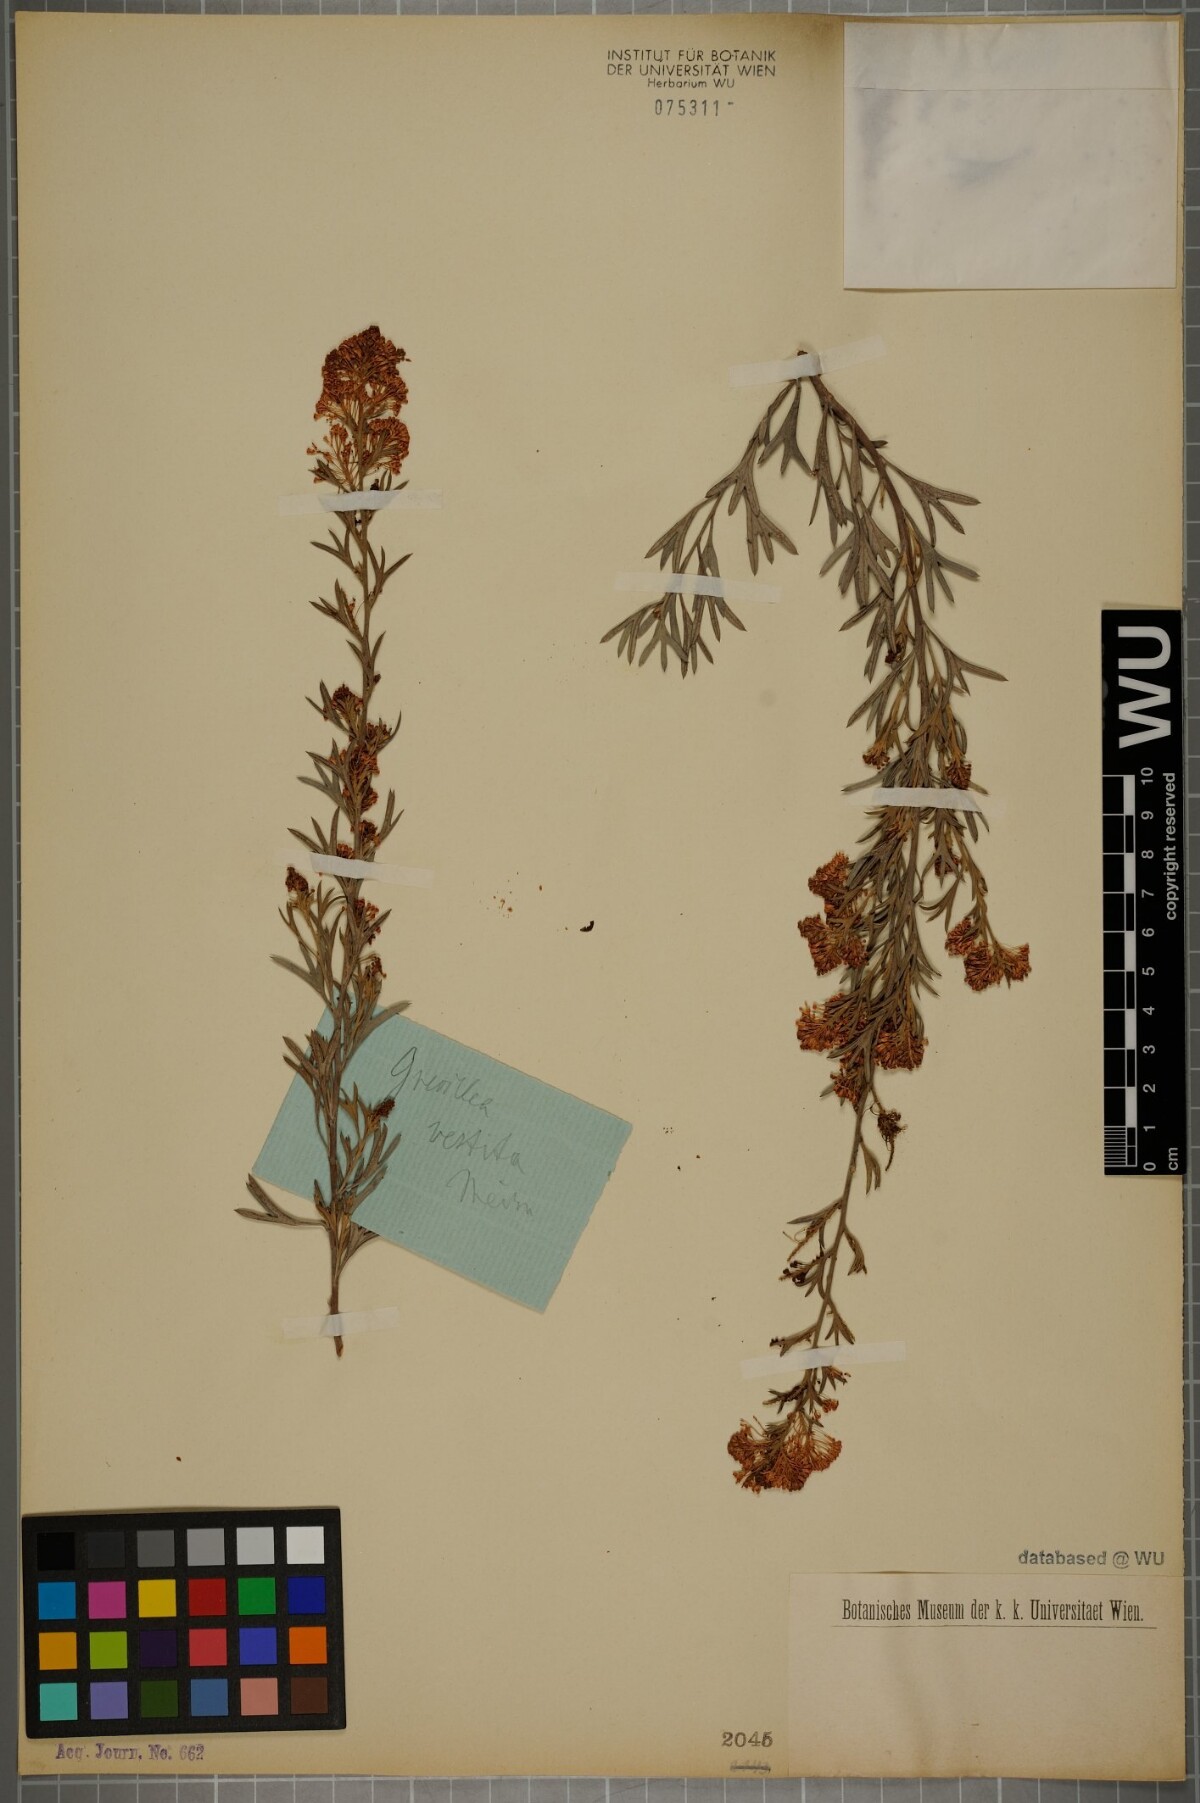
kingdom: Plantae
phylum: Tracheophyta
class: Magnoliopsida
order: Proteales
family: Proteaceae
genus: Grevillea
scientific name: Grevillea vestita
